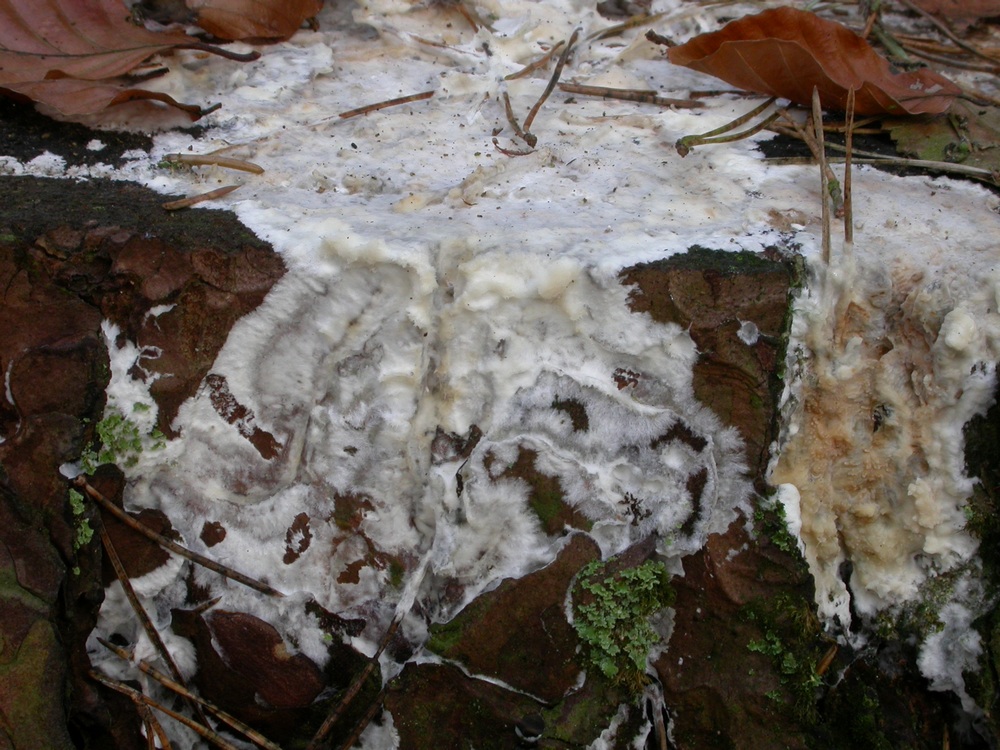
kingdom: Fungi
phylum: Basidiomycota
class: Agaricomycetes
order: Polyporales
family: Phanerochaetaceae
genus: Phlebiopsis
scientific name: Phlebiopsis gigantea
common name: kæmpebarksvamp
